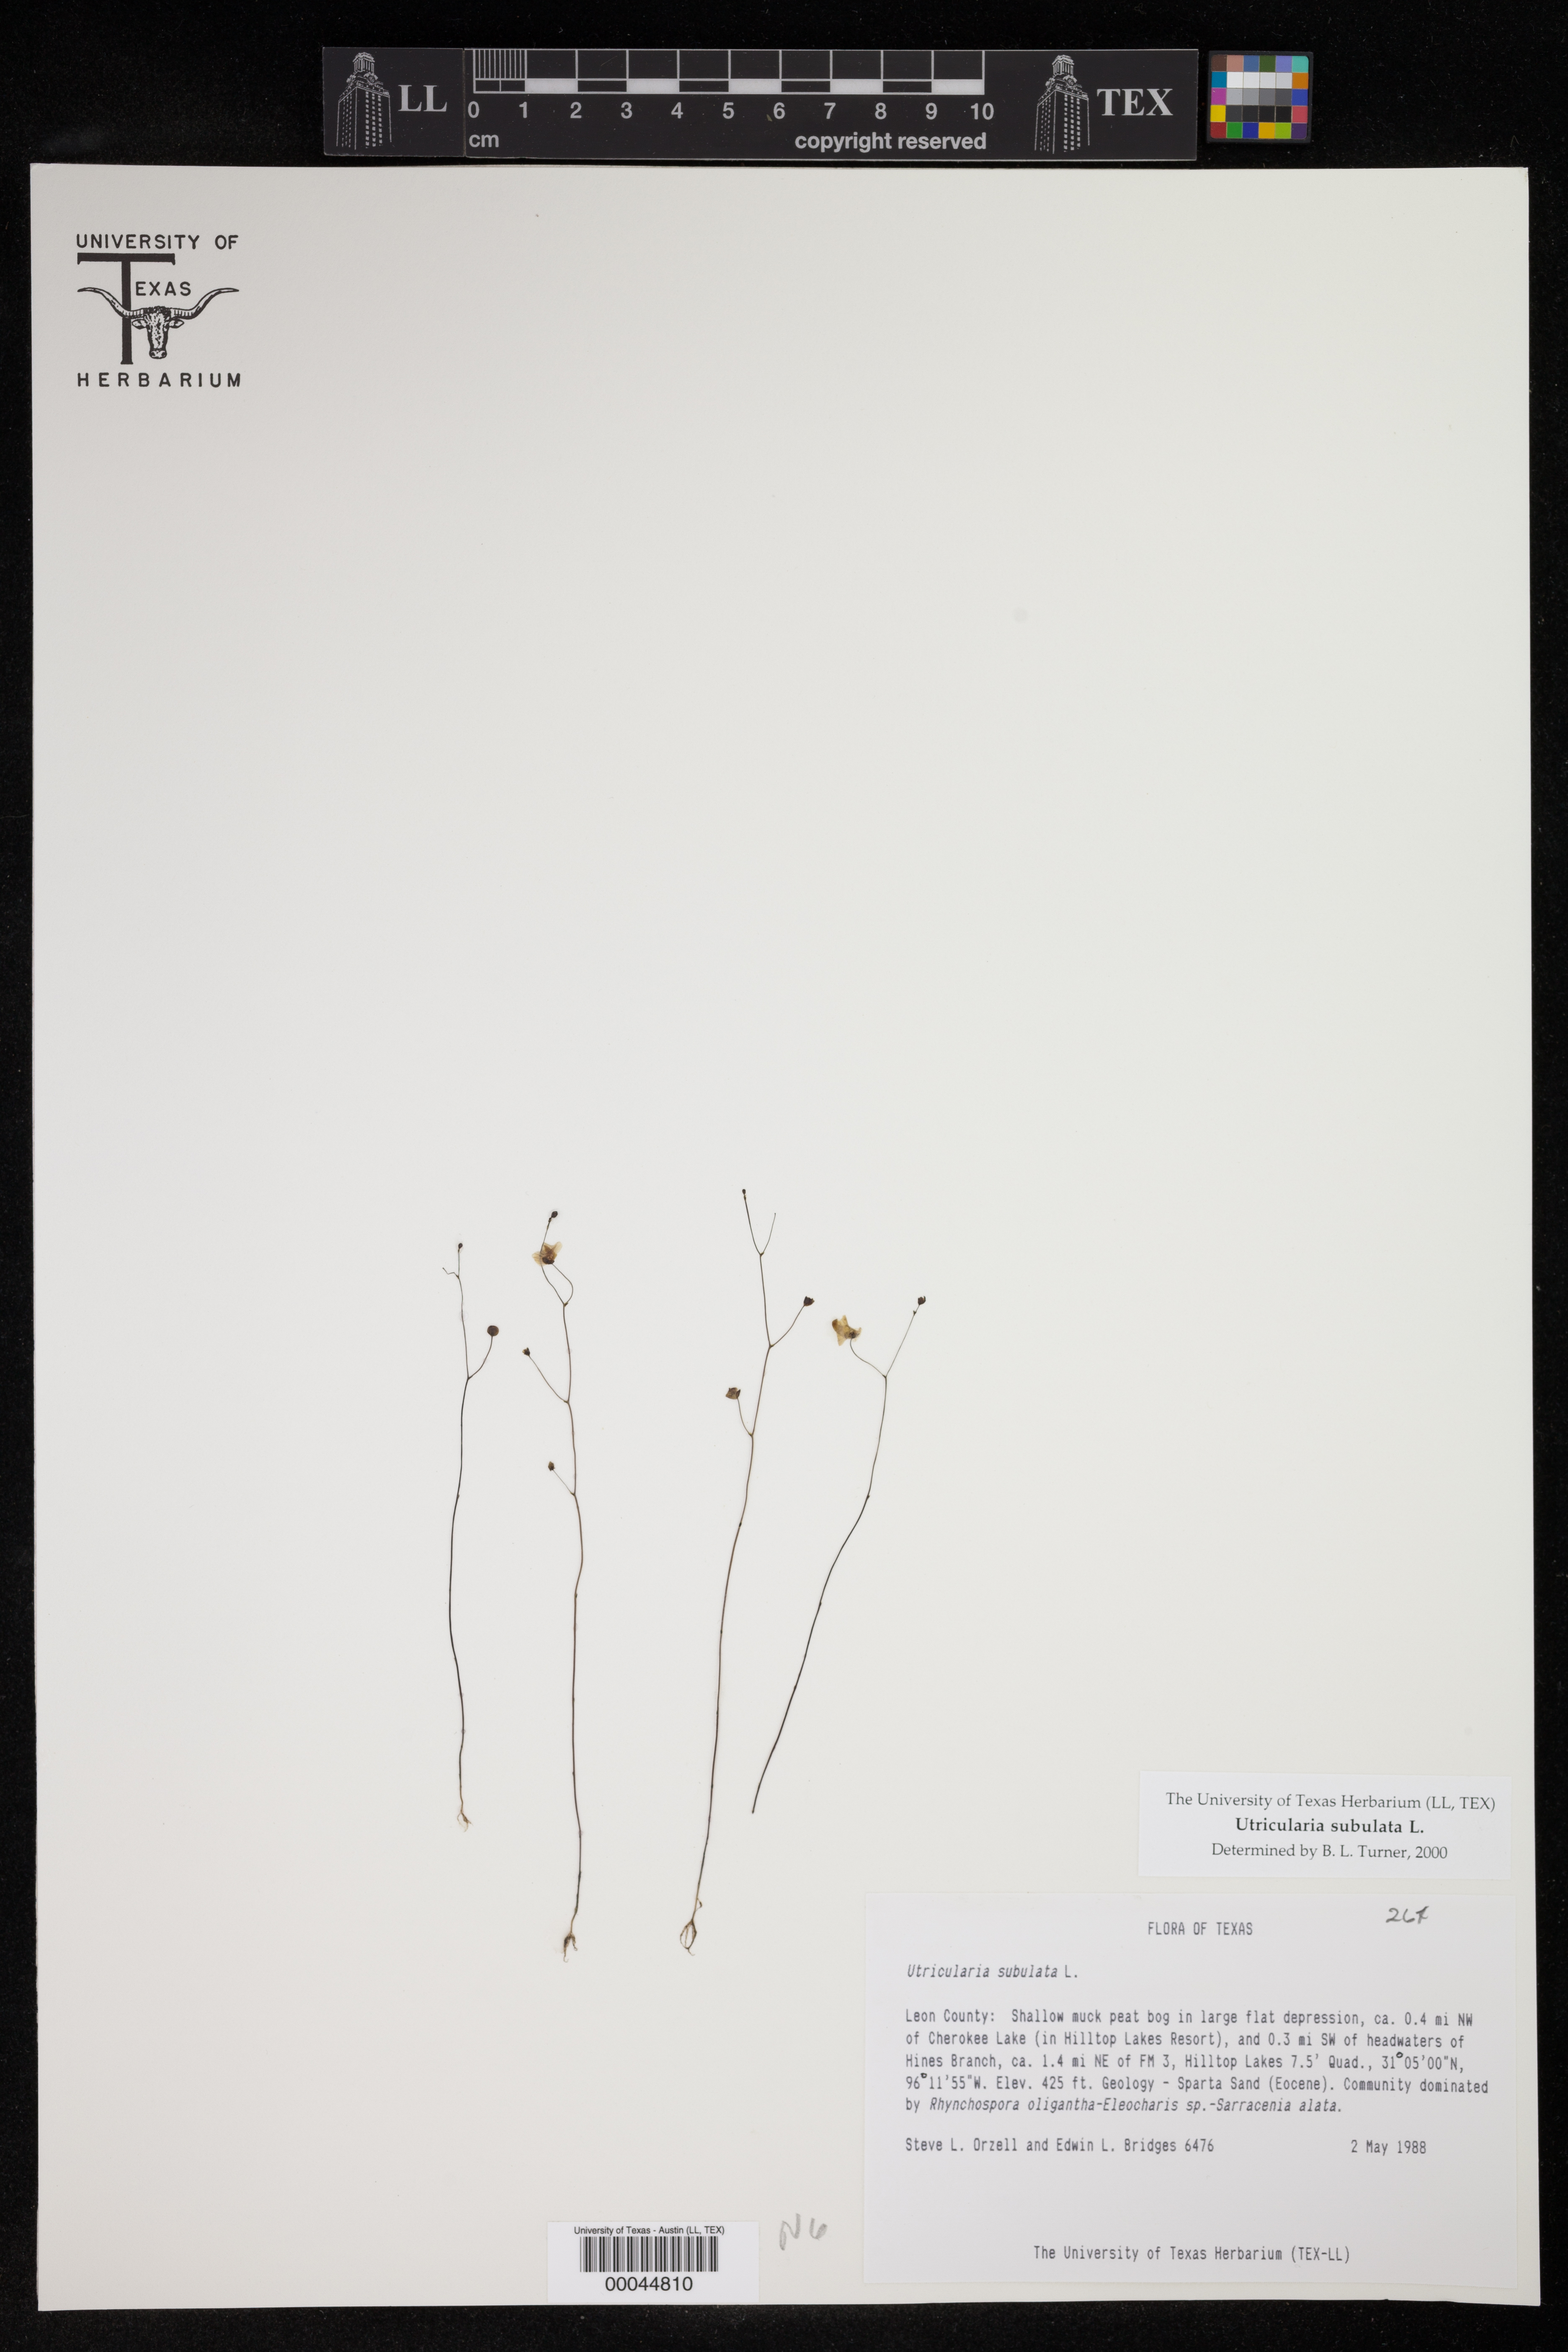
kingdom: Plantae
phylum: Tracheophyta
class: Magnoliopsida
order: Lamiales
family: Lentibulariaceae
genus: Utricularia
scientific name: Utricularia subulata
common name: Tiny bladderwort
